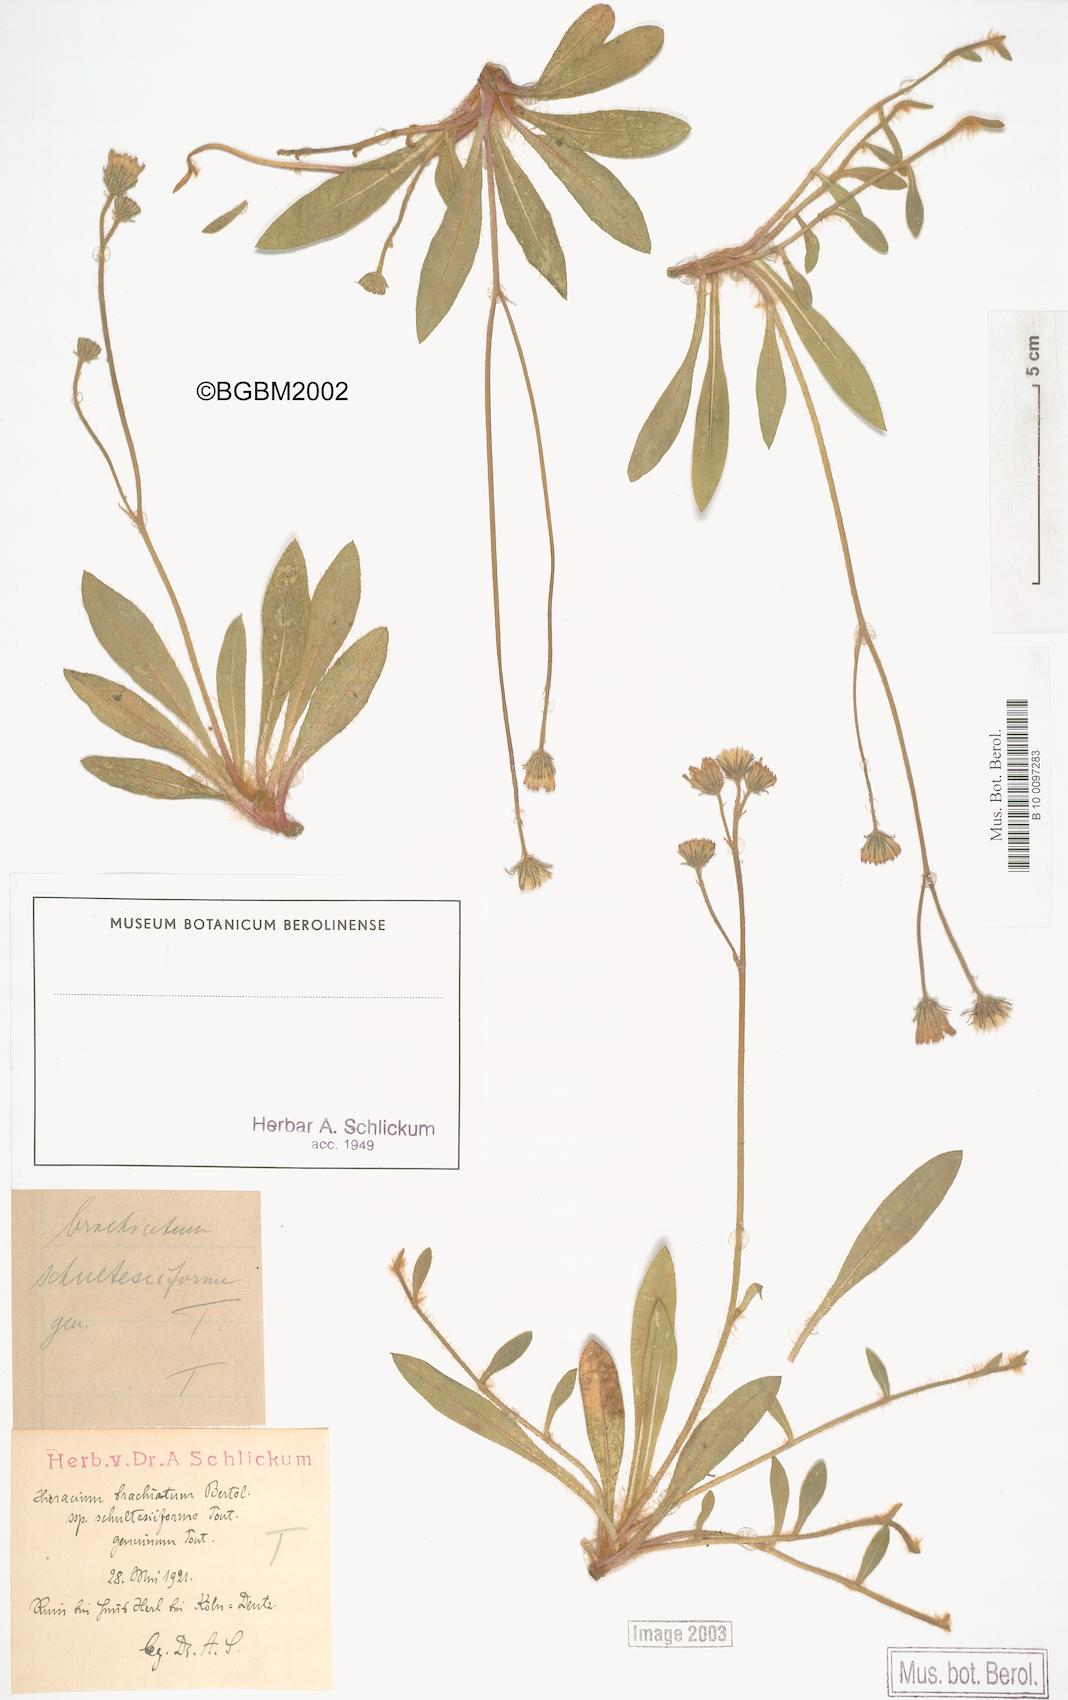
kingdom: Plantae
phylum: Tracheophyta
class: Magnoliopsida
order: Asterales
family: Asteraceae
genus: Pilosella
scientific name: Pilosella acutifolia
